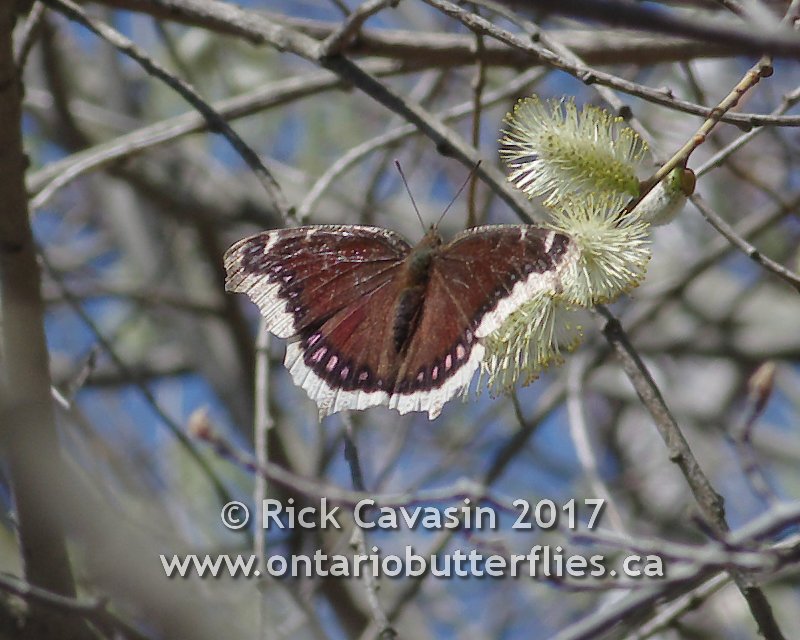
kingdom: Animalia
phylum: Arthropoda
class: Insecta
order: Lepidoptera
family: Nymphalidae
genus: Nymphalis
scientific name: Nymphalis antiopa
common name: Mourning Cloak
